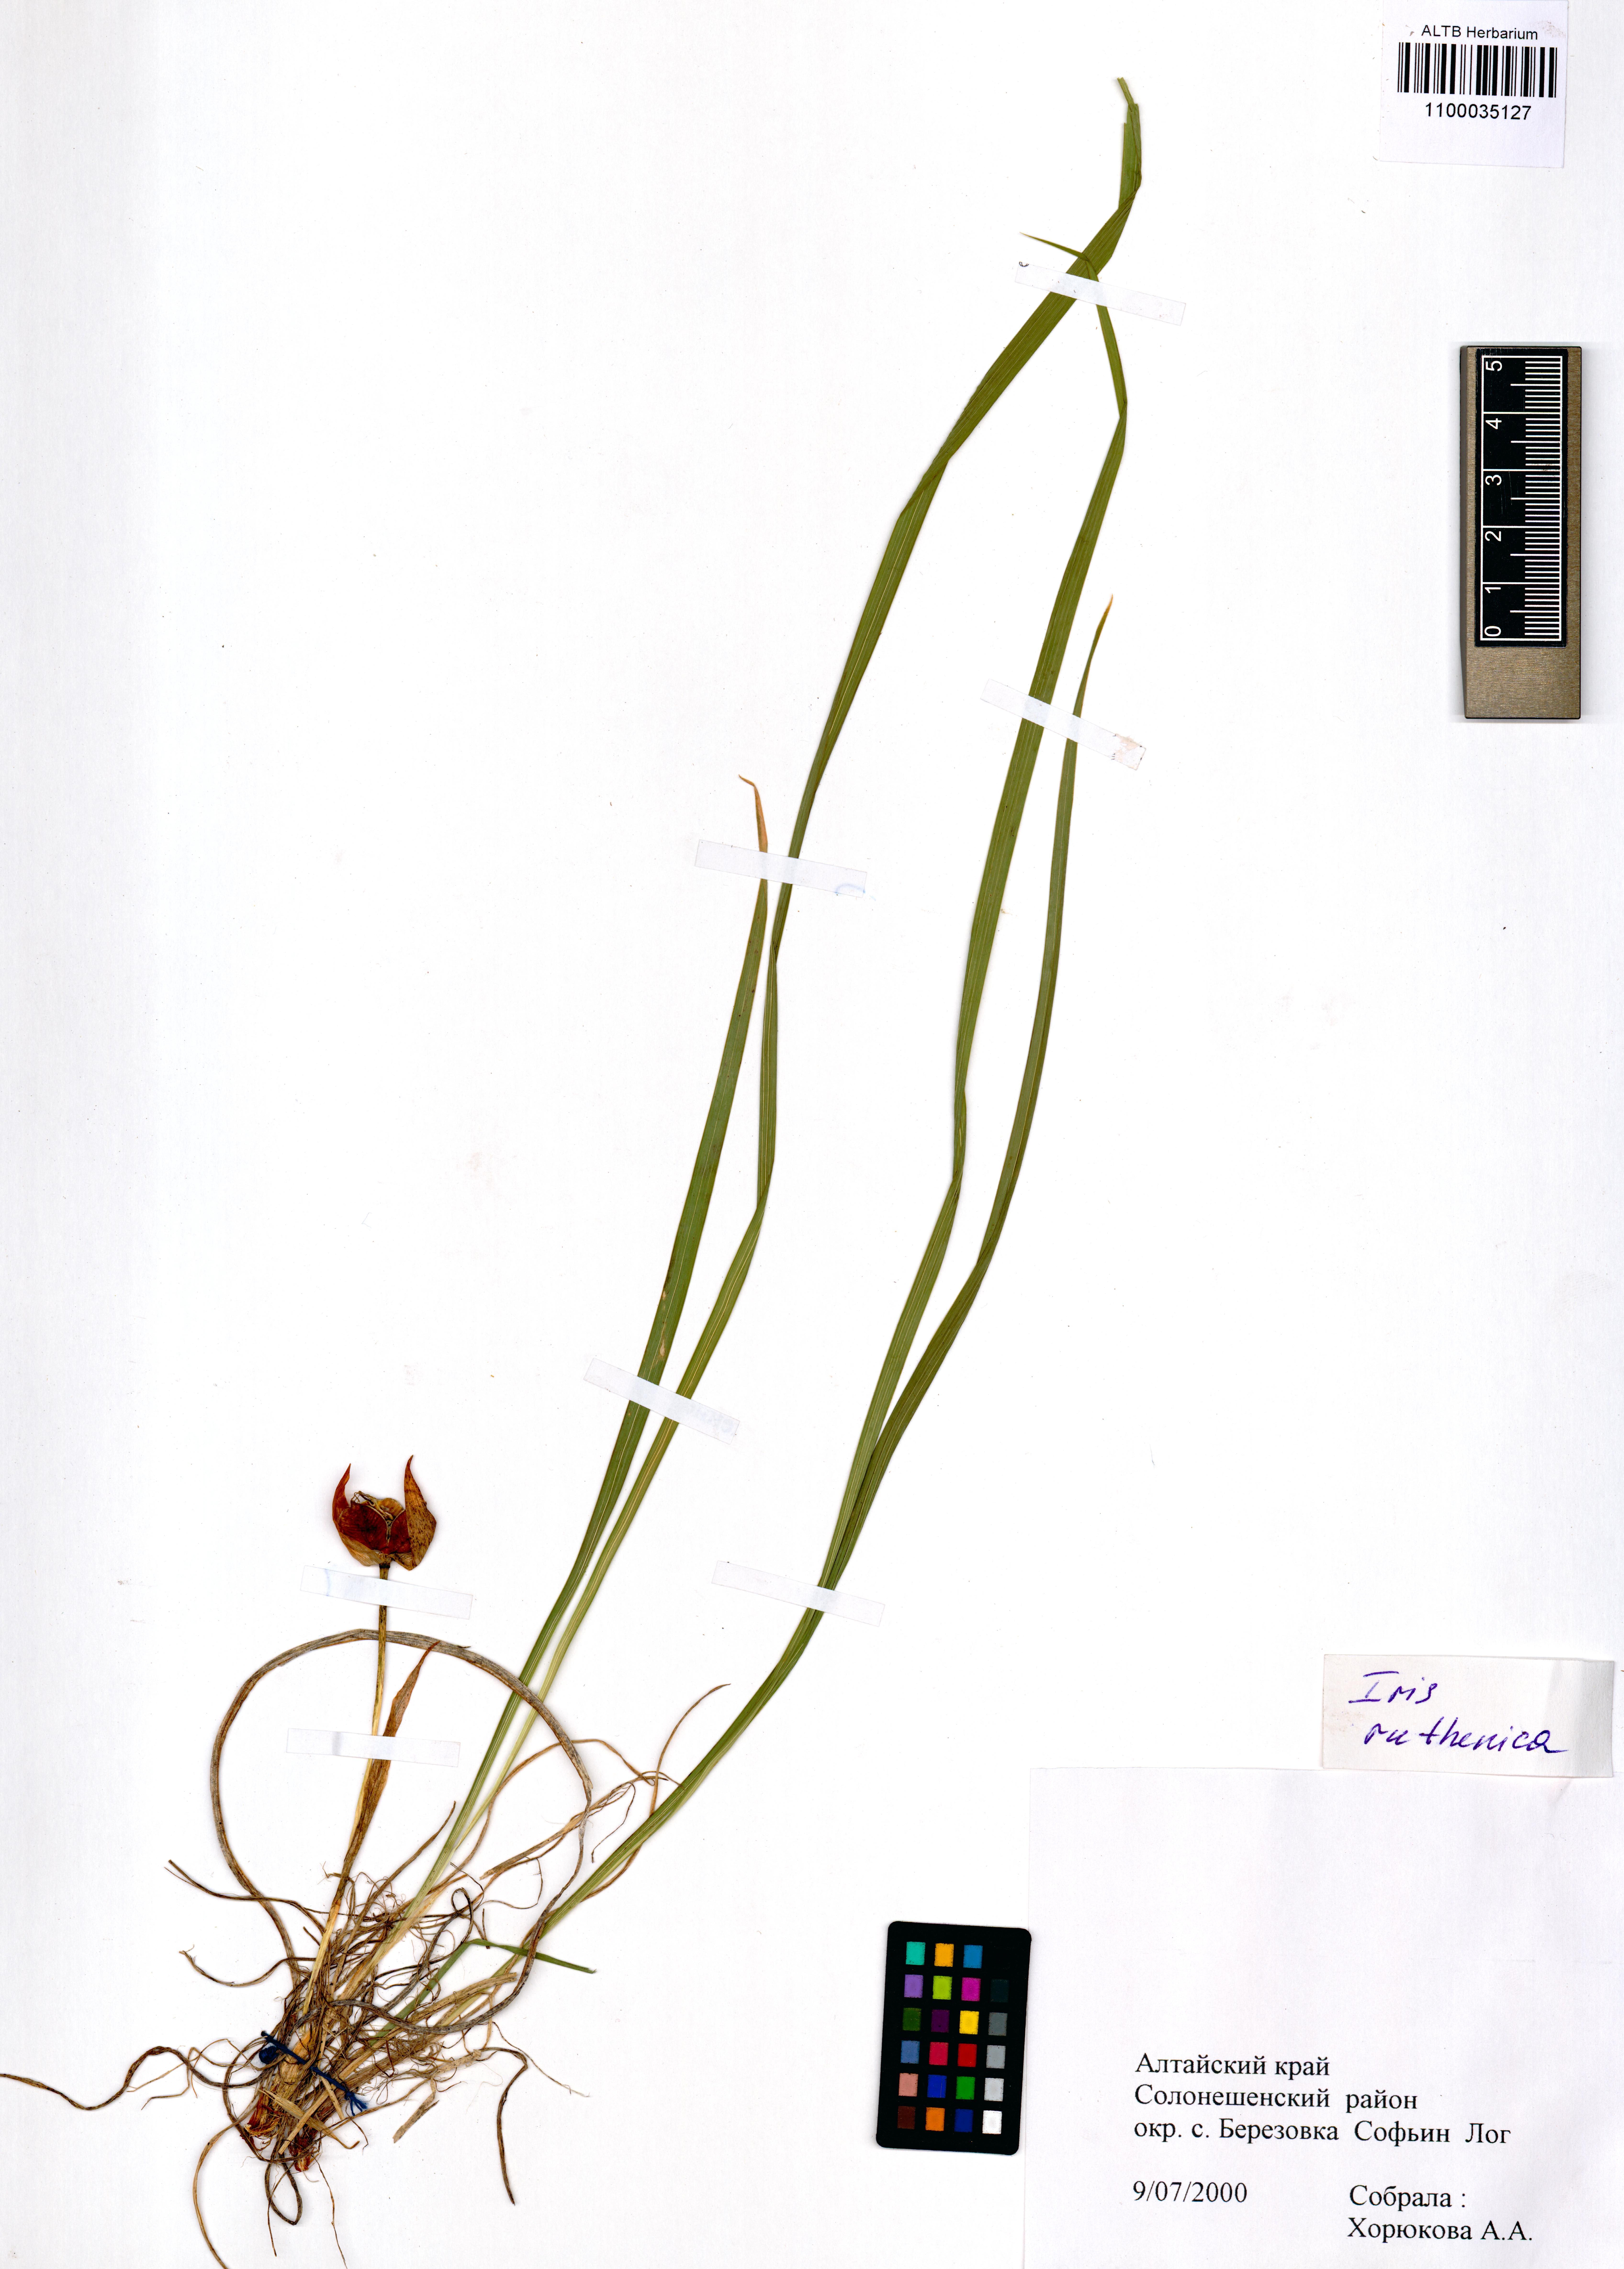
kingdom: Plantae
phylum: Tracheophyta
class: Liliopsida
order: Asparagales
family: Iridaceae
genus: Iris
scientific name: Iris ruthenica
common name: Purple-bract iris
